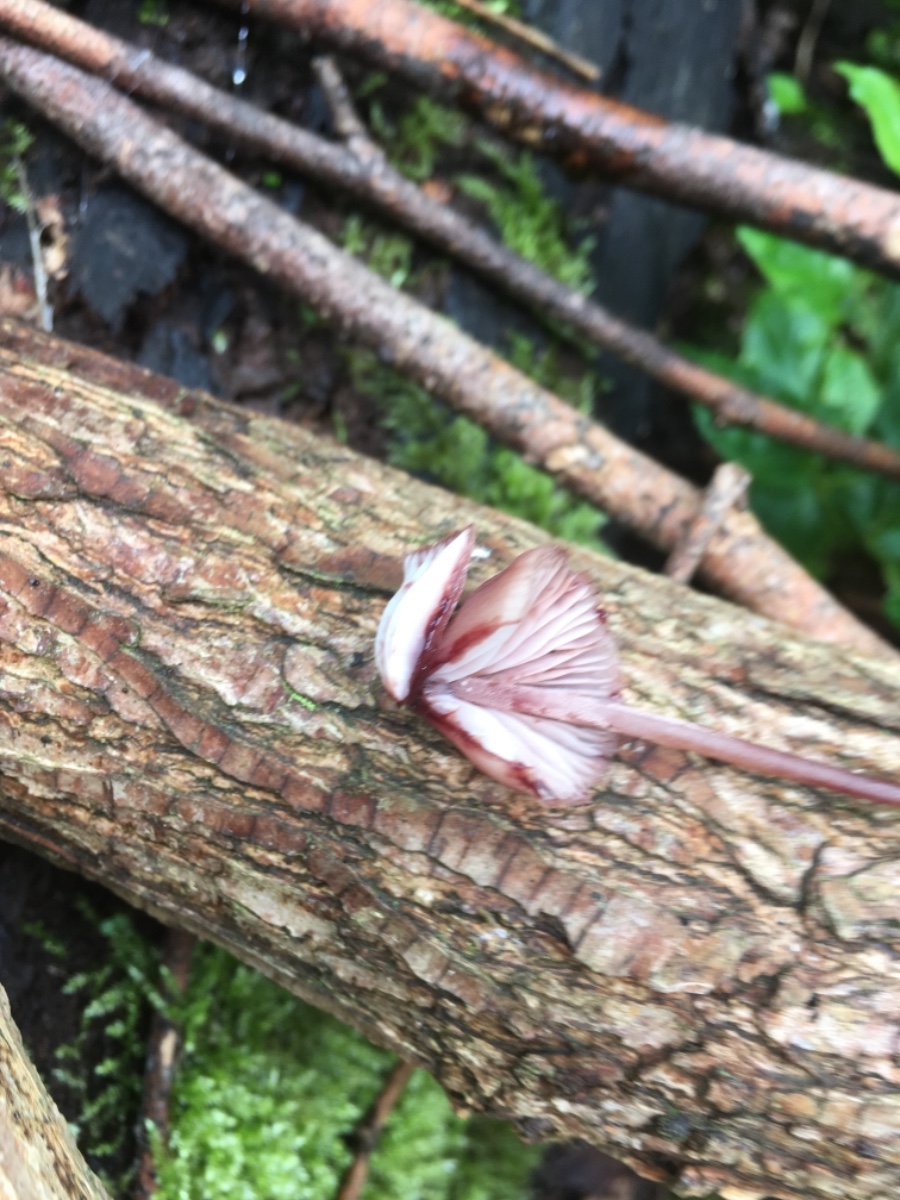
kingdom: Fungi
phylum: Basidiomycota
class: Agaricomycetes
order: Agaricales
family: Mycenaceae
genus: Mycena
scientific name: Mycena haematopus
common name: blødende huesvamp
